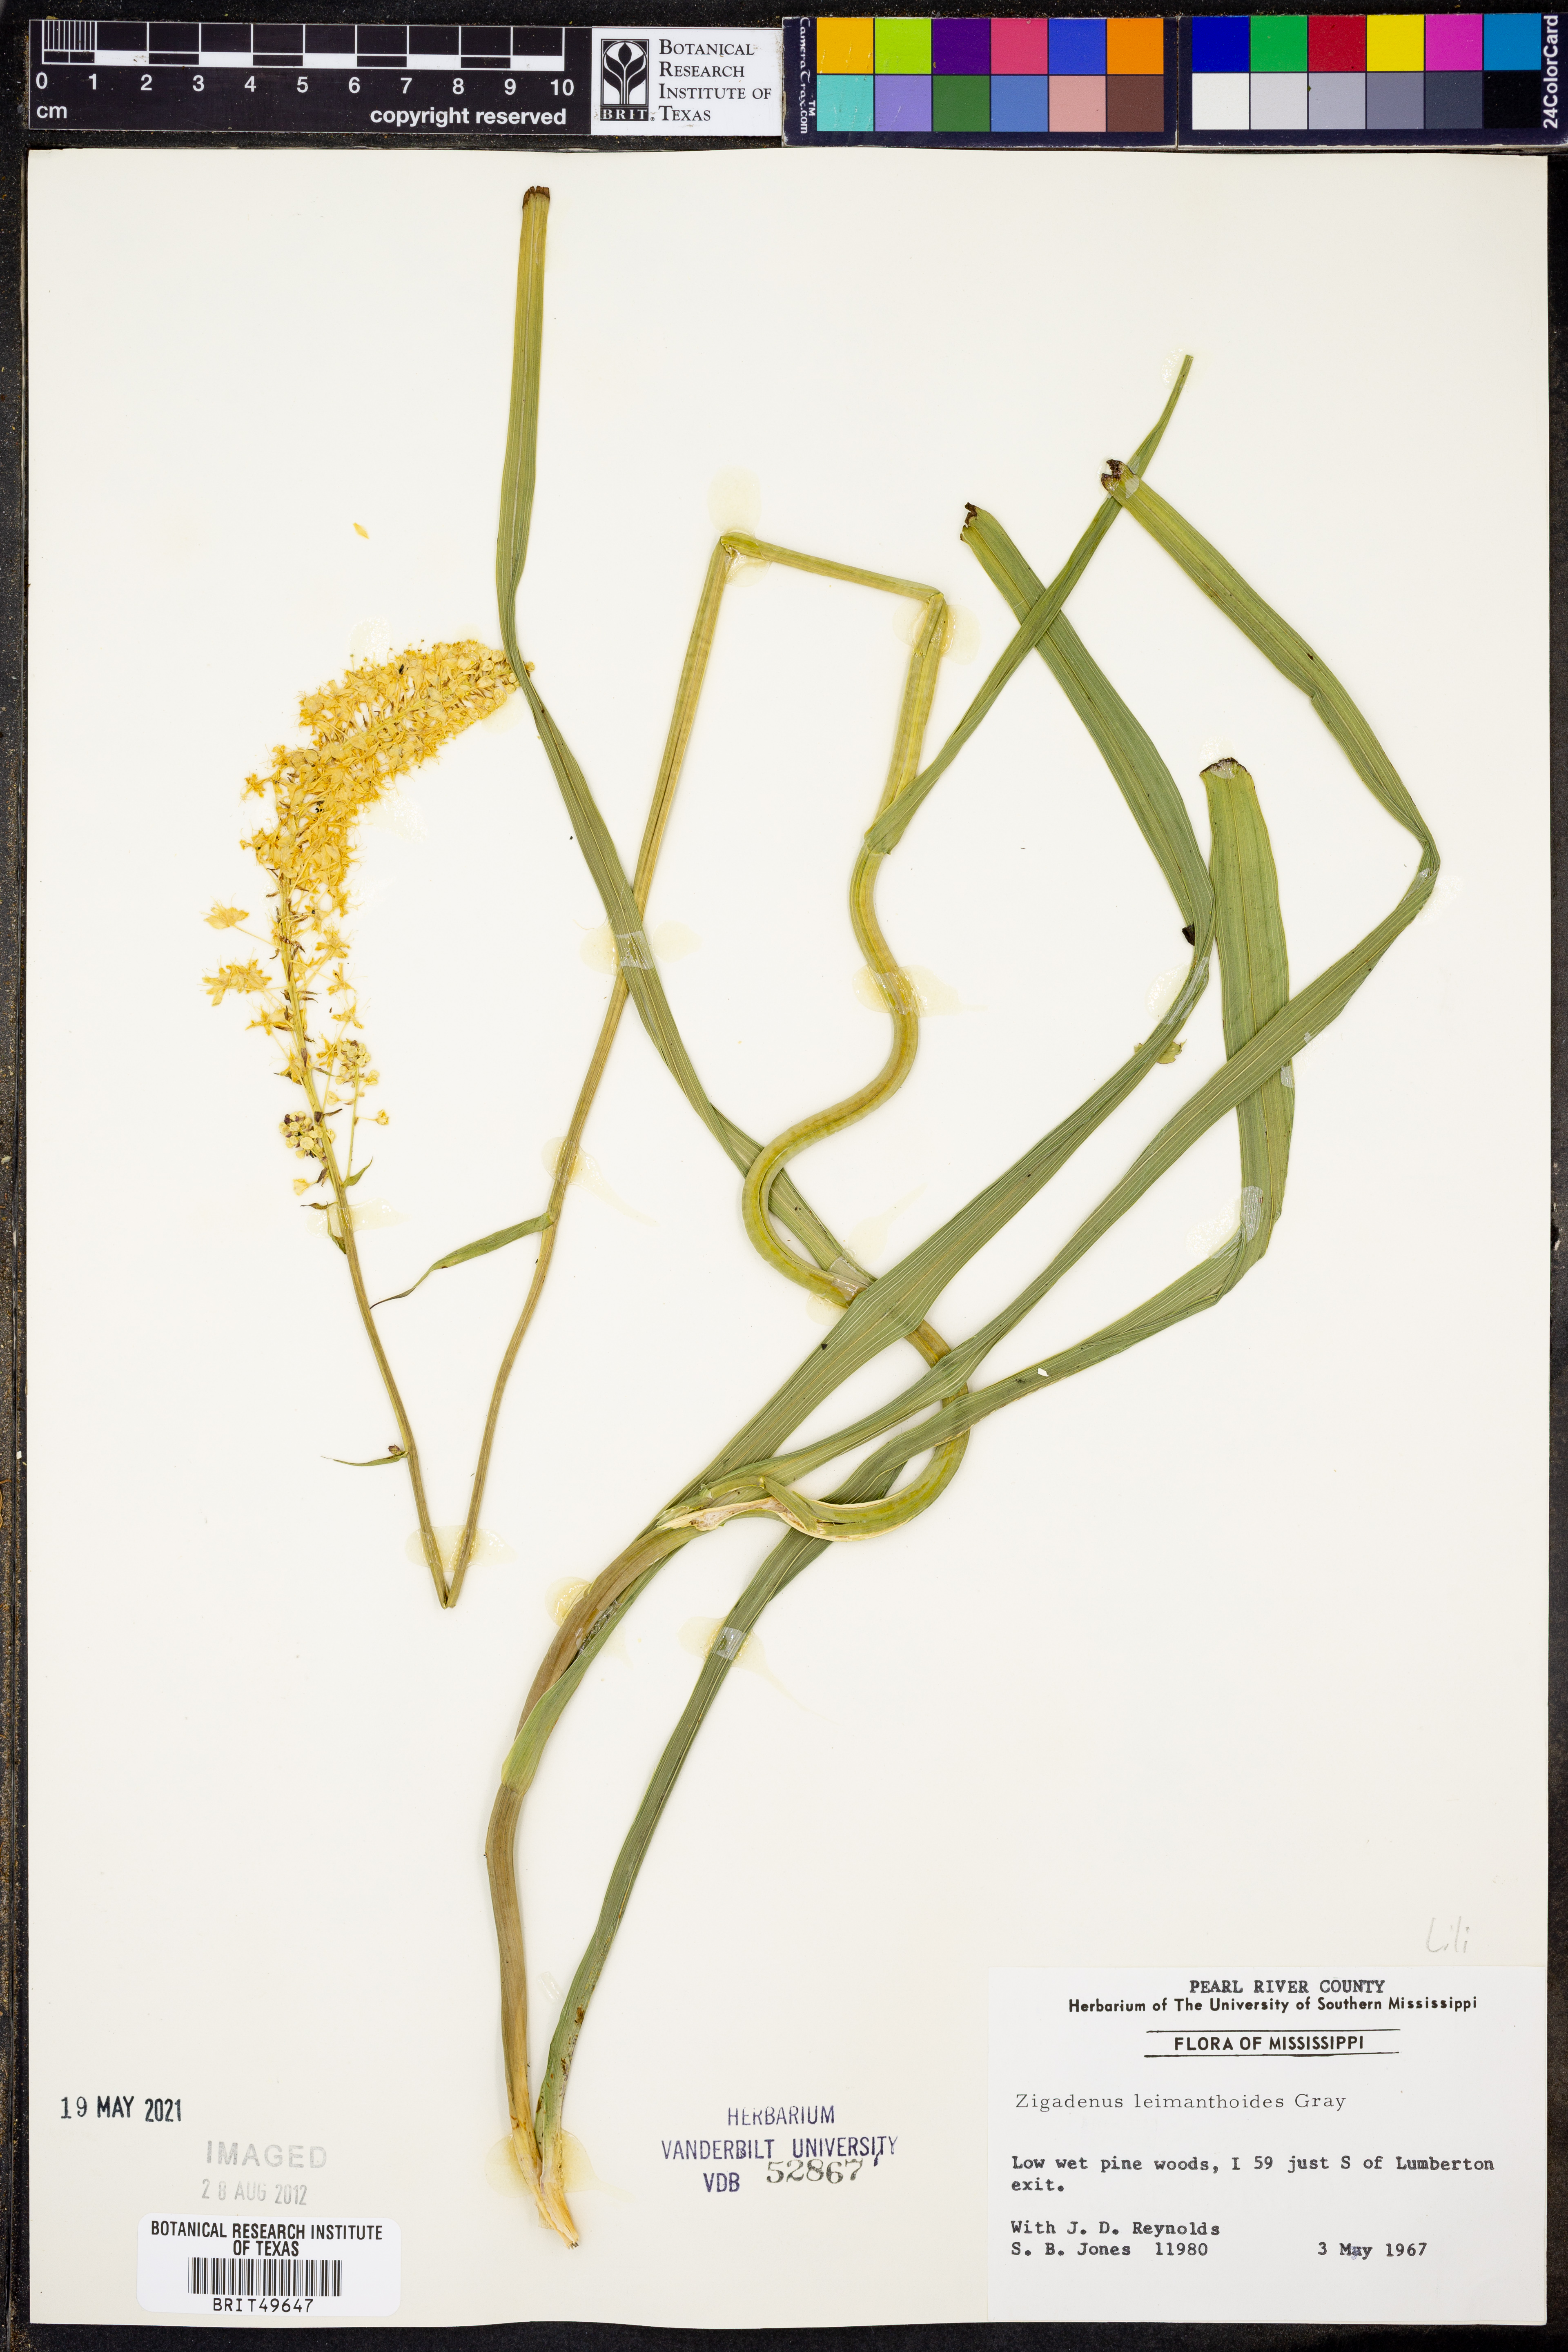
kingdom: Plantae
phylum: Tracheophyta
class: Liliopsida
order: Liliales
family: Melanthiaceae
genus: Stenanthium
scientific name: Stenanthium leimanthoides
